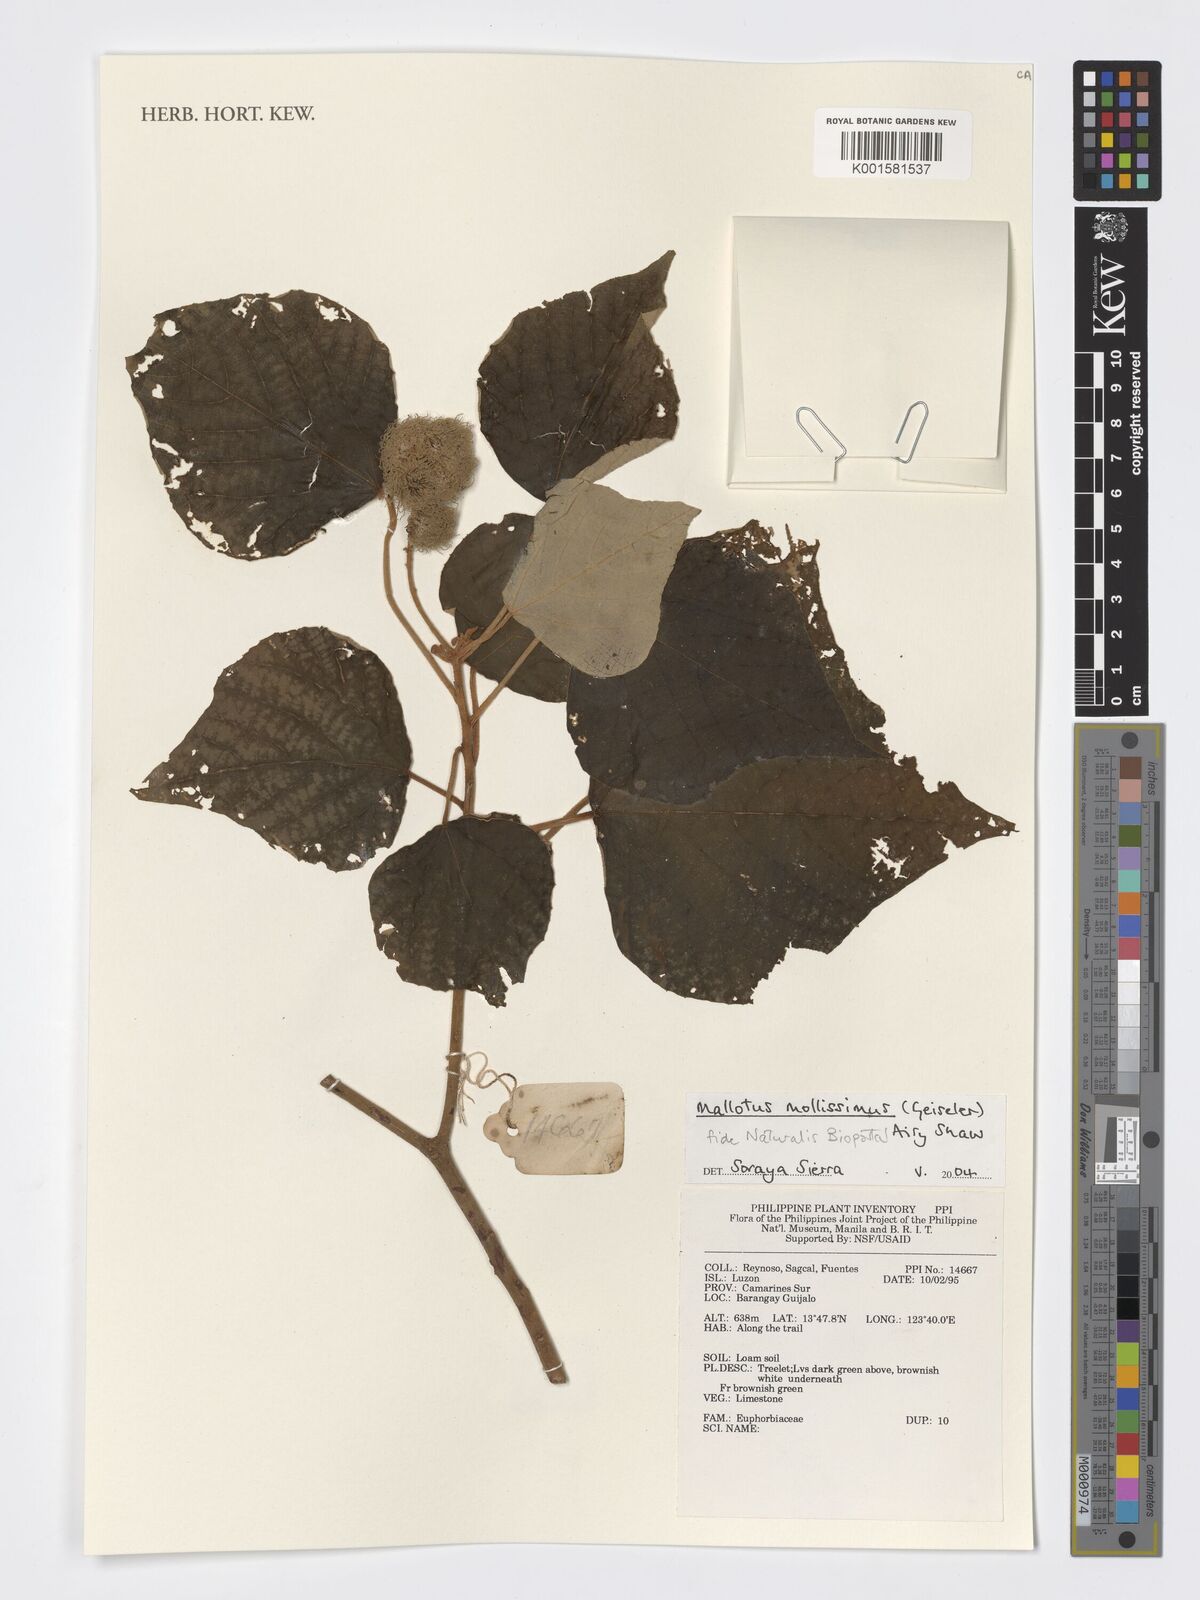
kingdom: Plantae
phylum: Tracheophyta
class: Magnoliopsida
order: Malpighiales
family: Euphorbiaceae
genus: Mallotus
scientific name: Mallotus mollissimus
